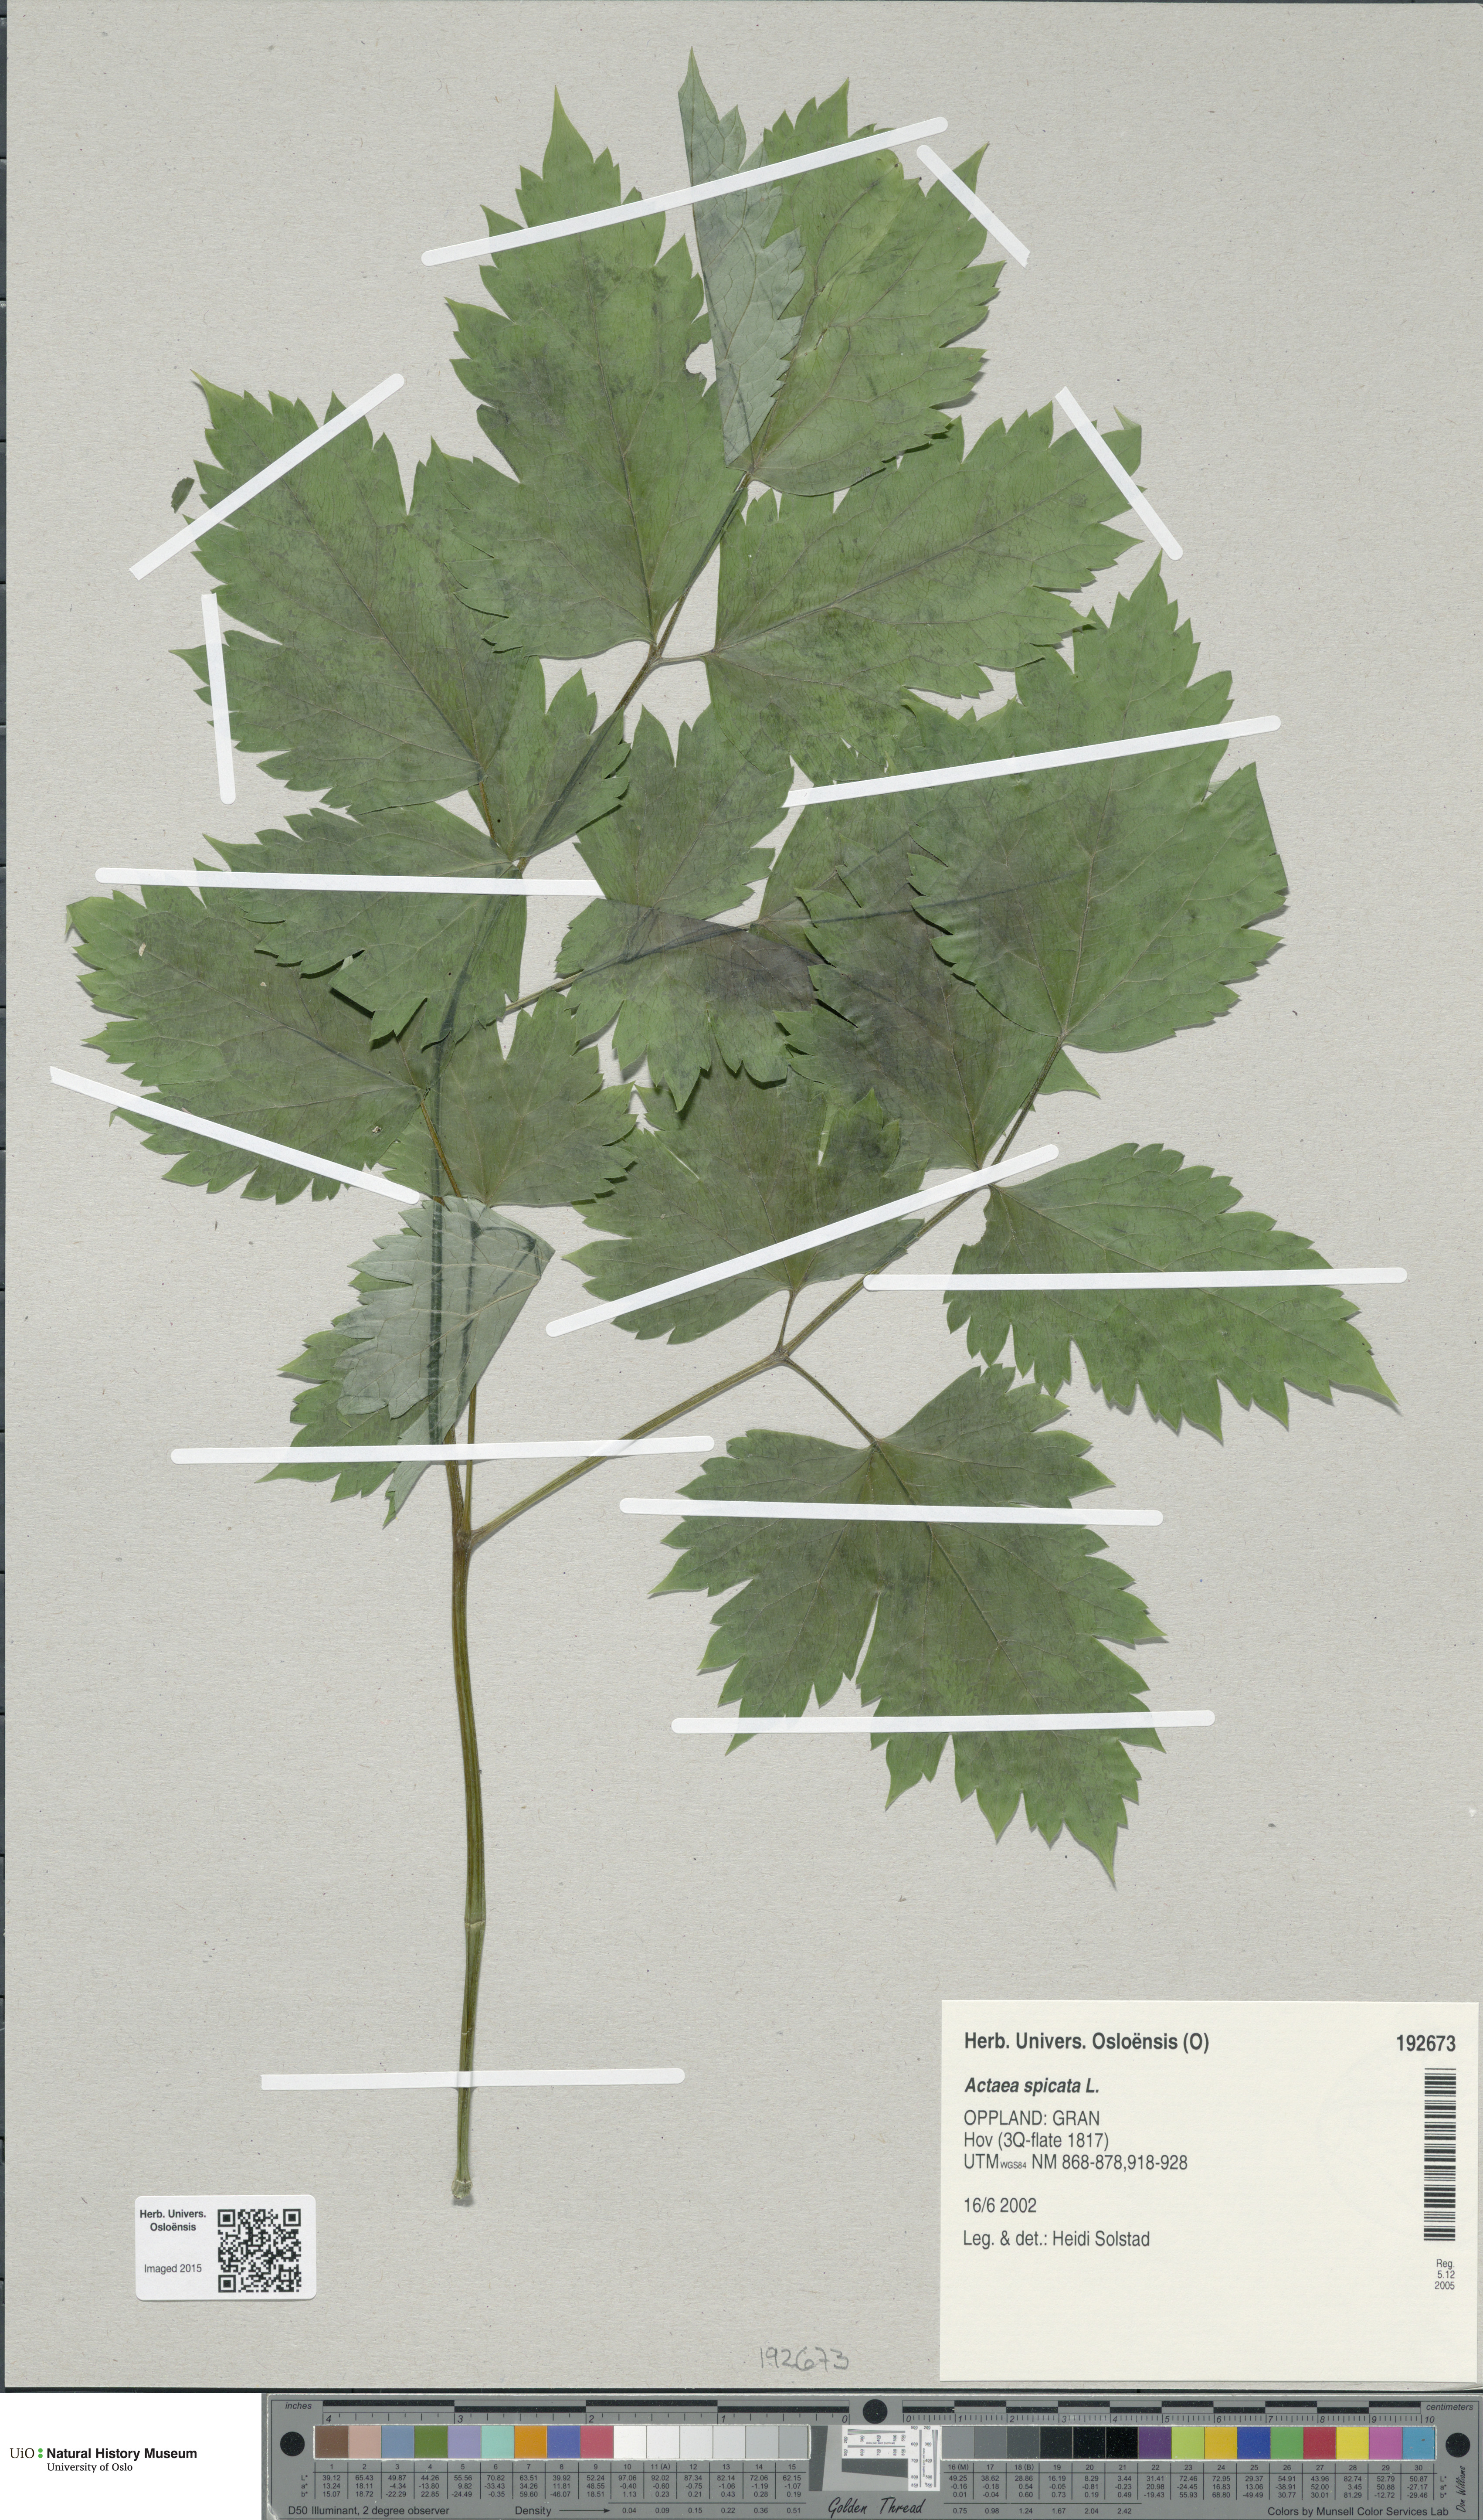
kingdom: Plantae
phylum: Tracheophyta
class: Magnoliopsida
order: Ranunculales
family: Ranunculaceae
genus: Actaea
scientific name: Actaea spicata
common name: Baneberry
